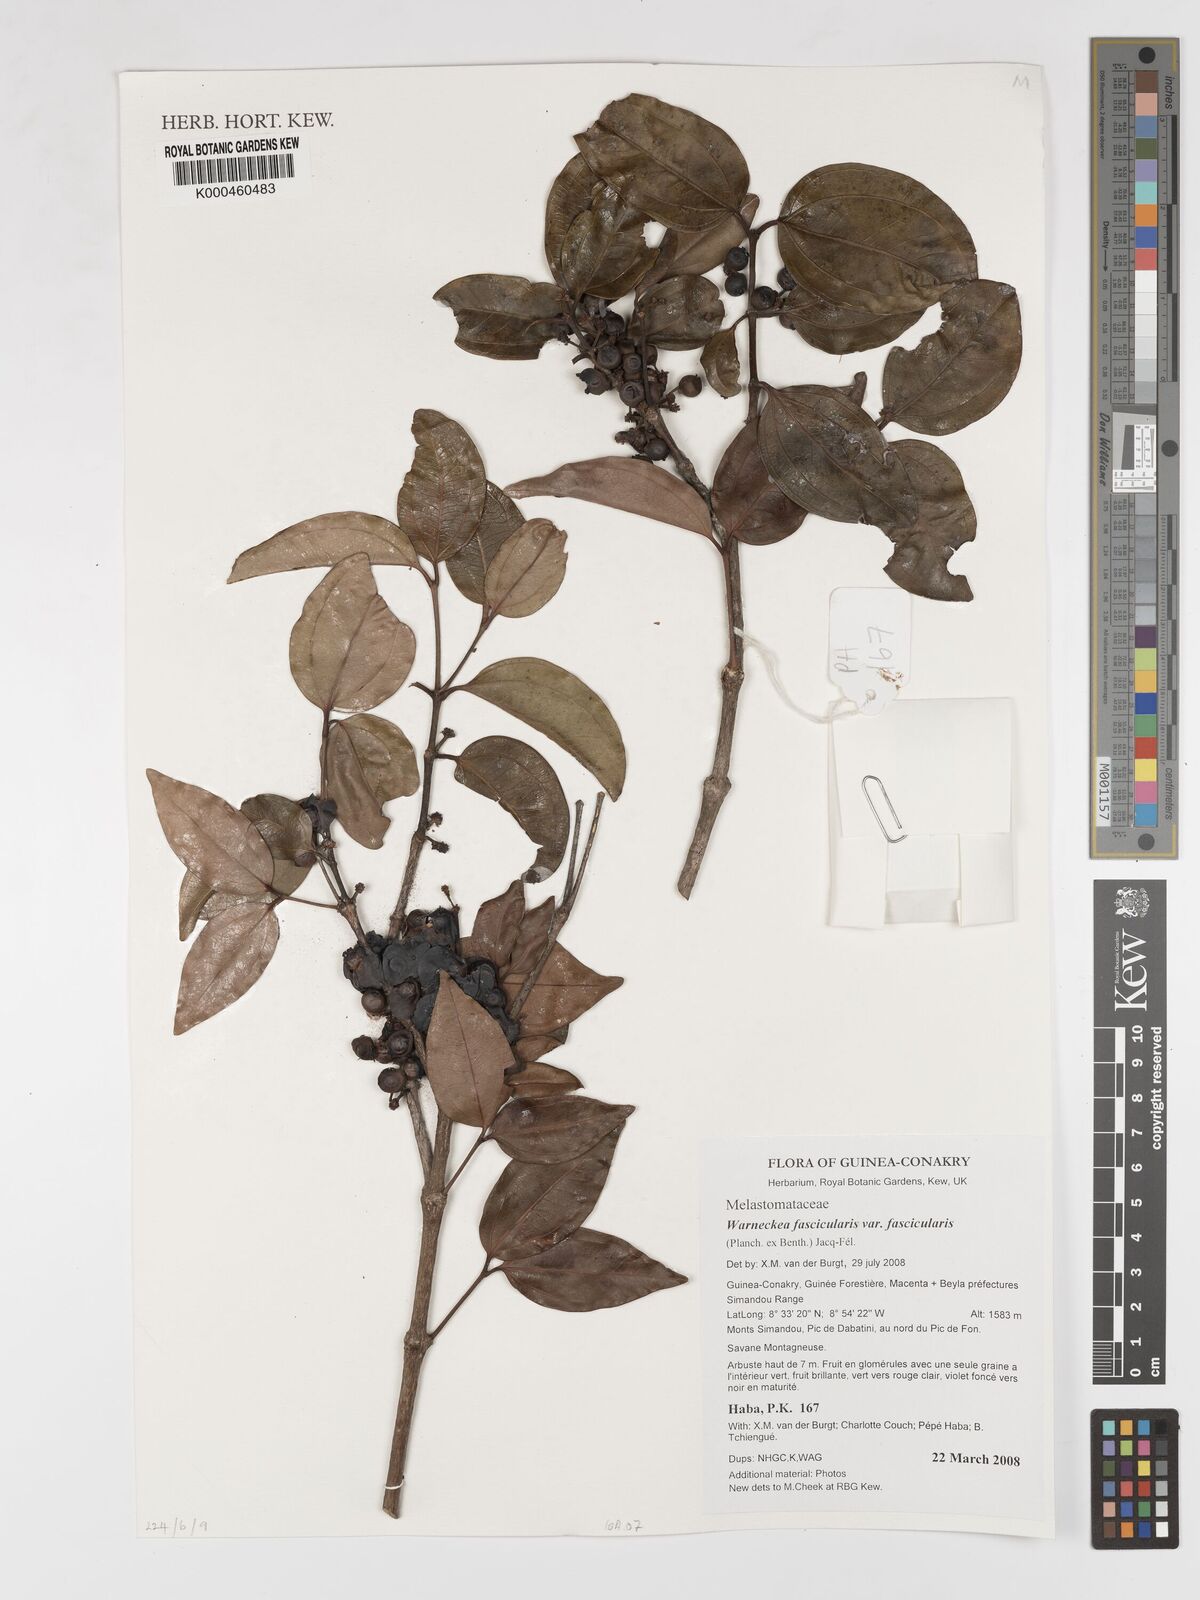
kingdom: Plantae
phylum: Tracheophyta
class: Magnoliopsida
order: Myrtales
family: Melastomataceae
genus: Warneckea
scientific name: Warneckea fascicularis
